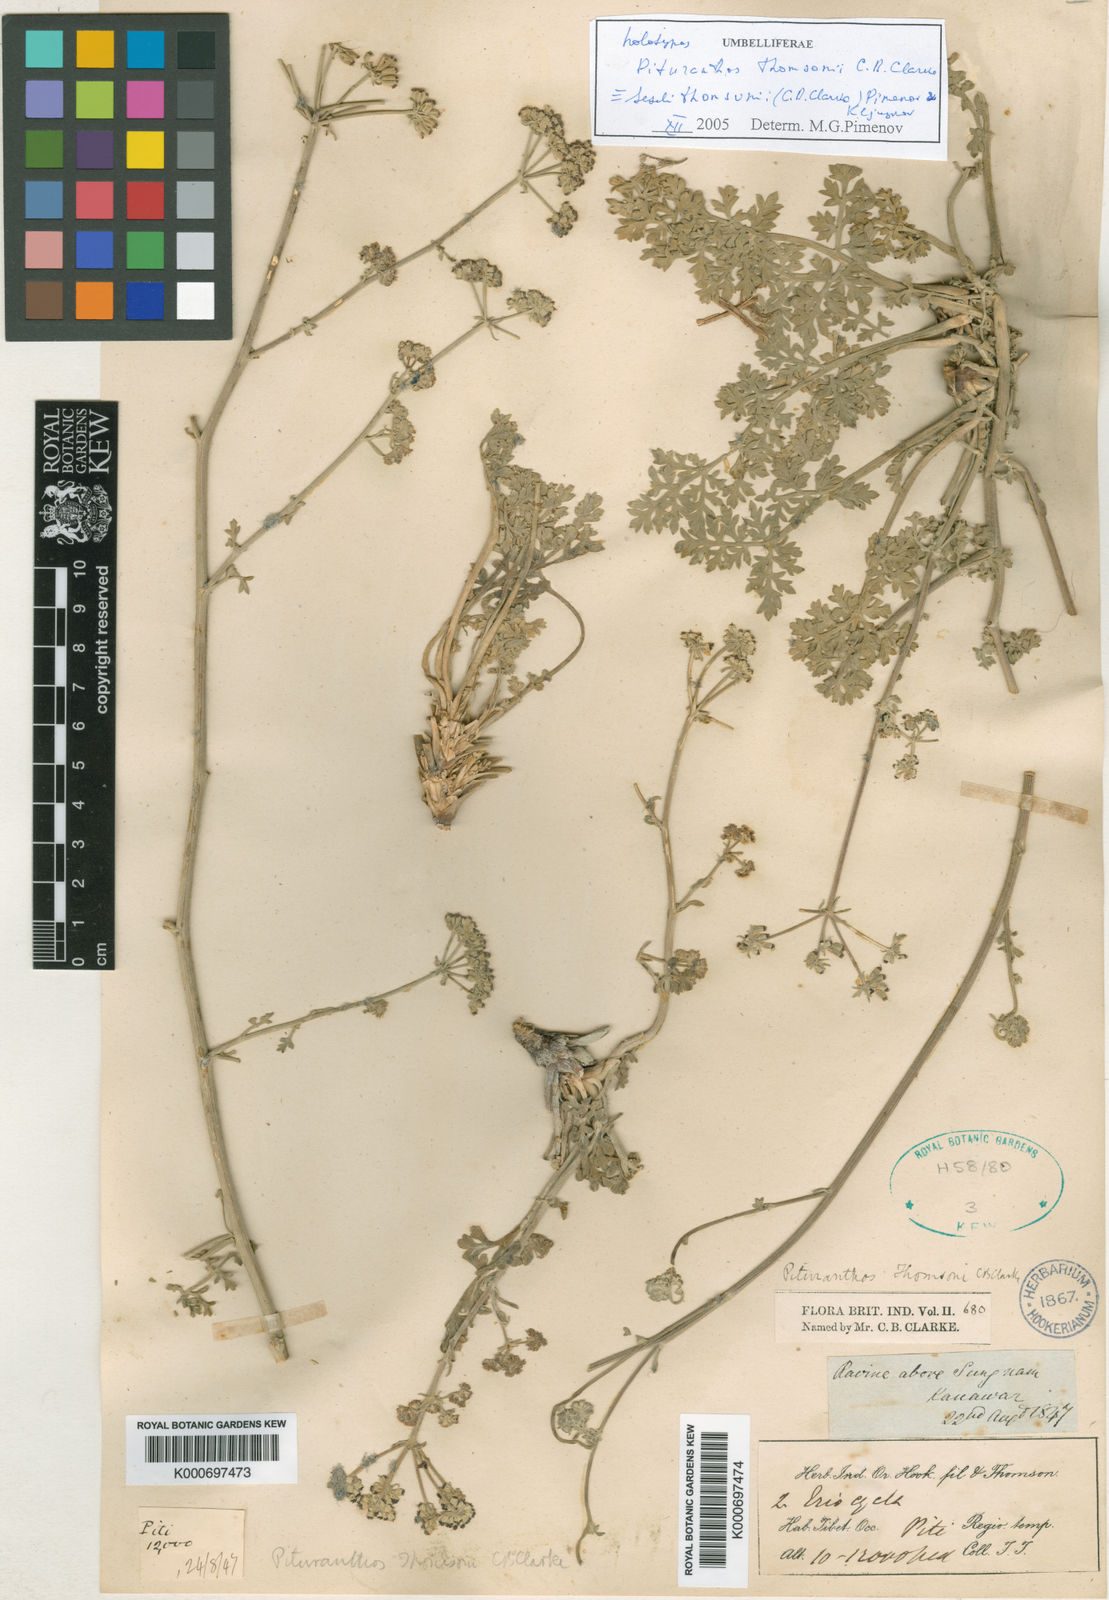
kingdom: Plantae
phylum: Tracheophyta
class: Magnoliopsida
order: Apiales
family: Apiaceae
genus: Seseli
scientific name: Seseli thomsonii
